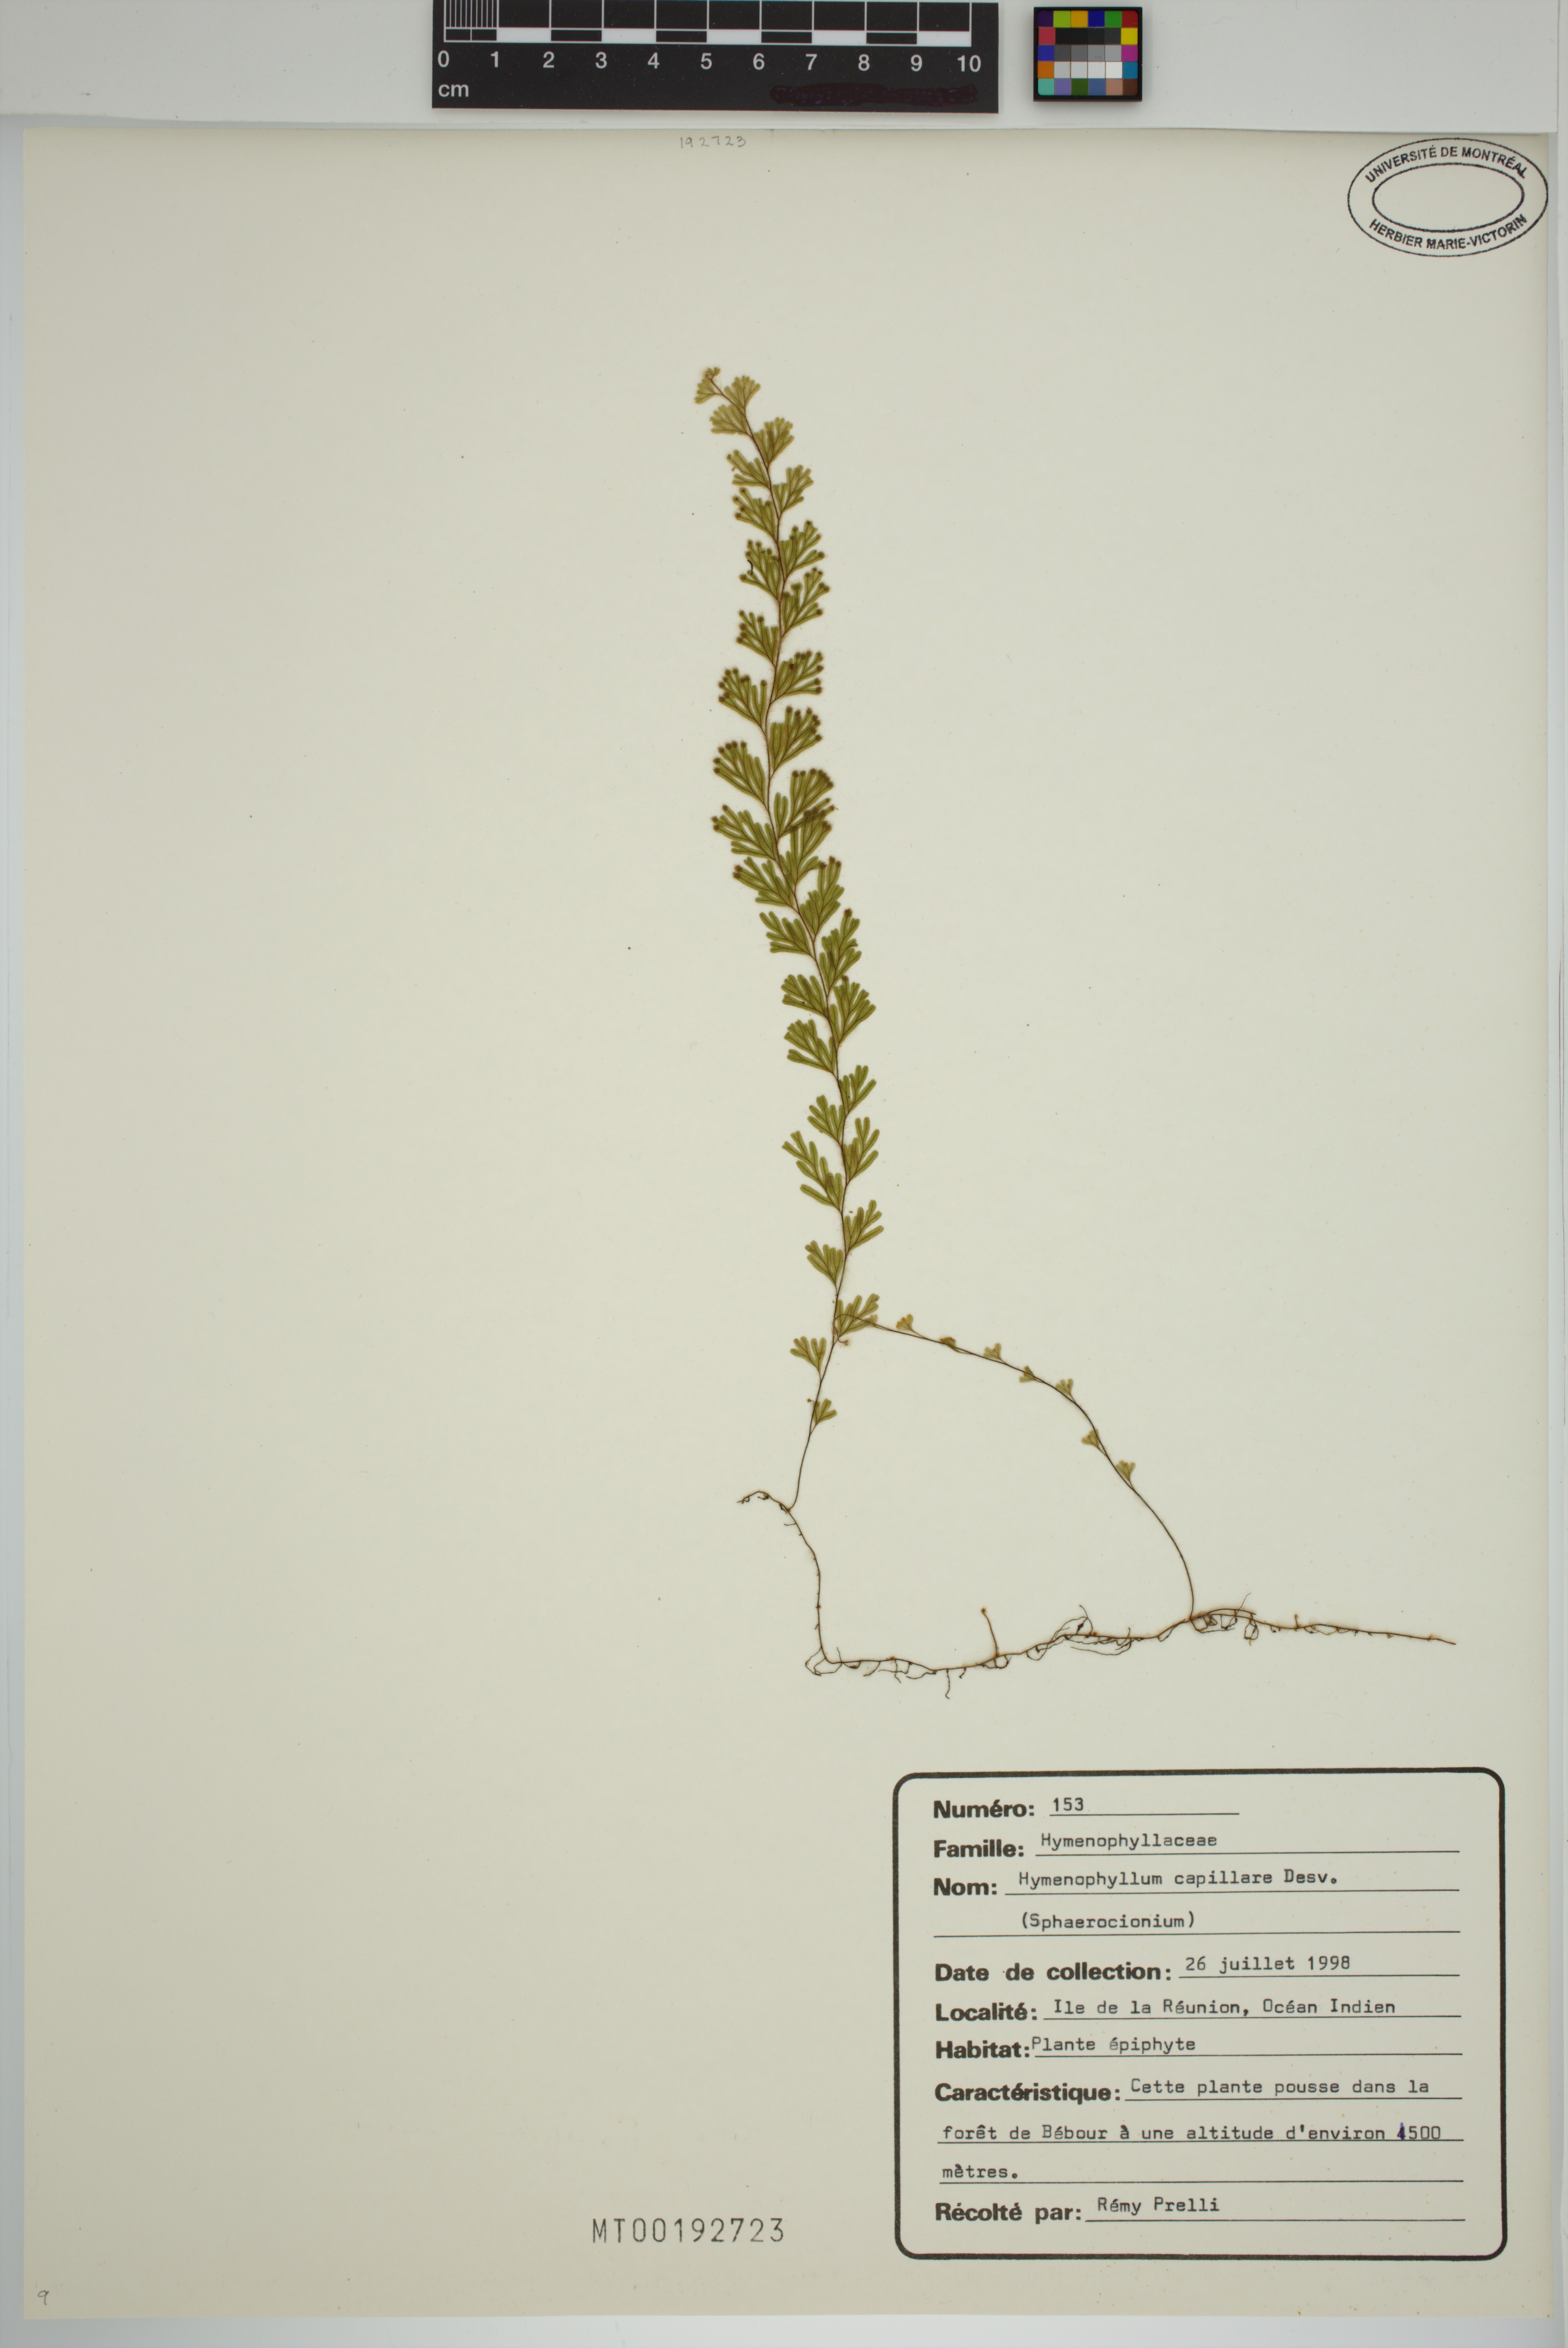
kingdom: Plantae
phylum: Tracheophyta
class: Polypodiopsida
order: Hymenophyllales
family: Hymenophyllaceae
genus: Hymenophyllum
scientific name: Hymenophyllum capillare
